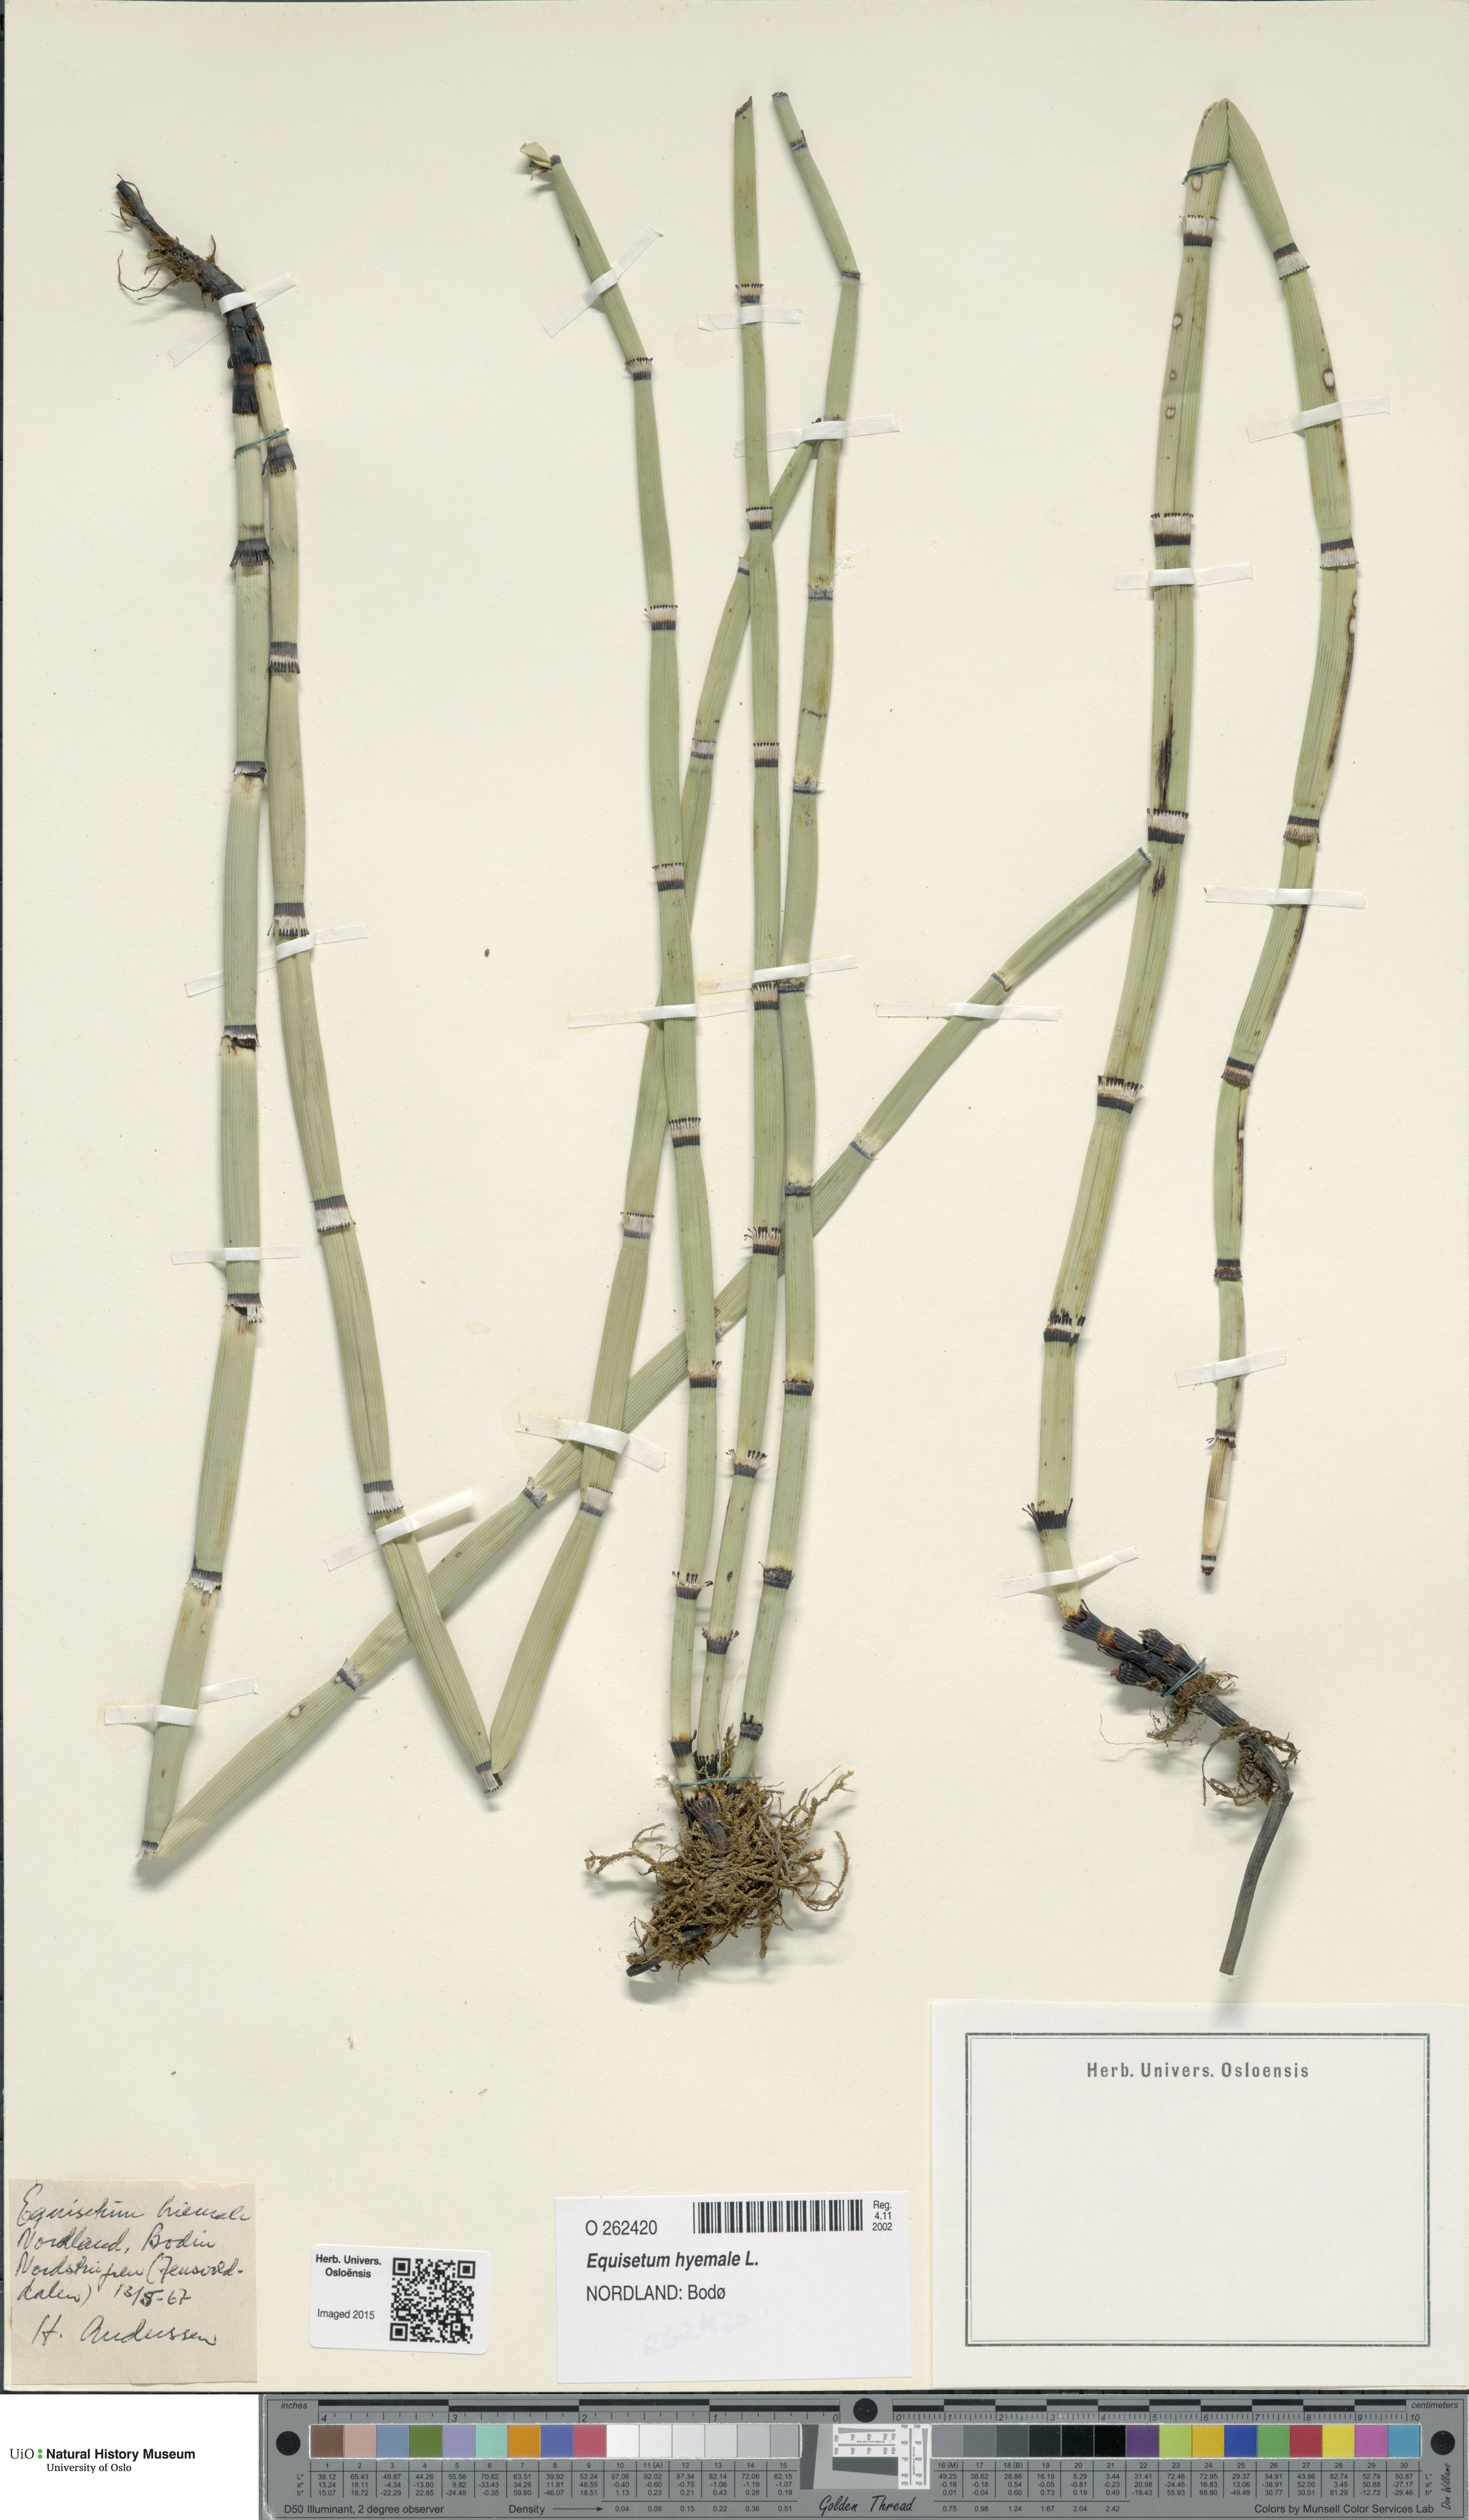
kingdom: Plantae
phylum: Tracheophyta
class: Polypodiopsida
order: Equisetales
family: Equisetaceae
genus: Equisetum
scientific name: Equisetum hyemale
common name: Rough horsetail
